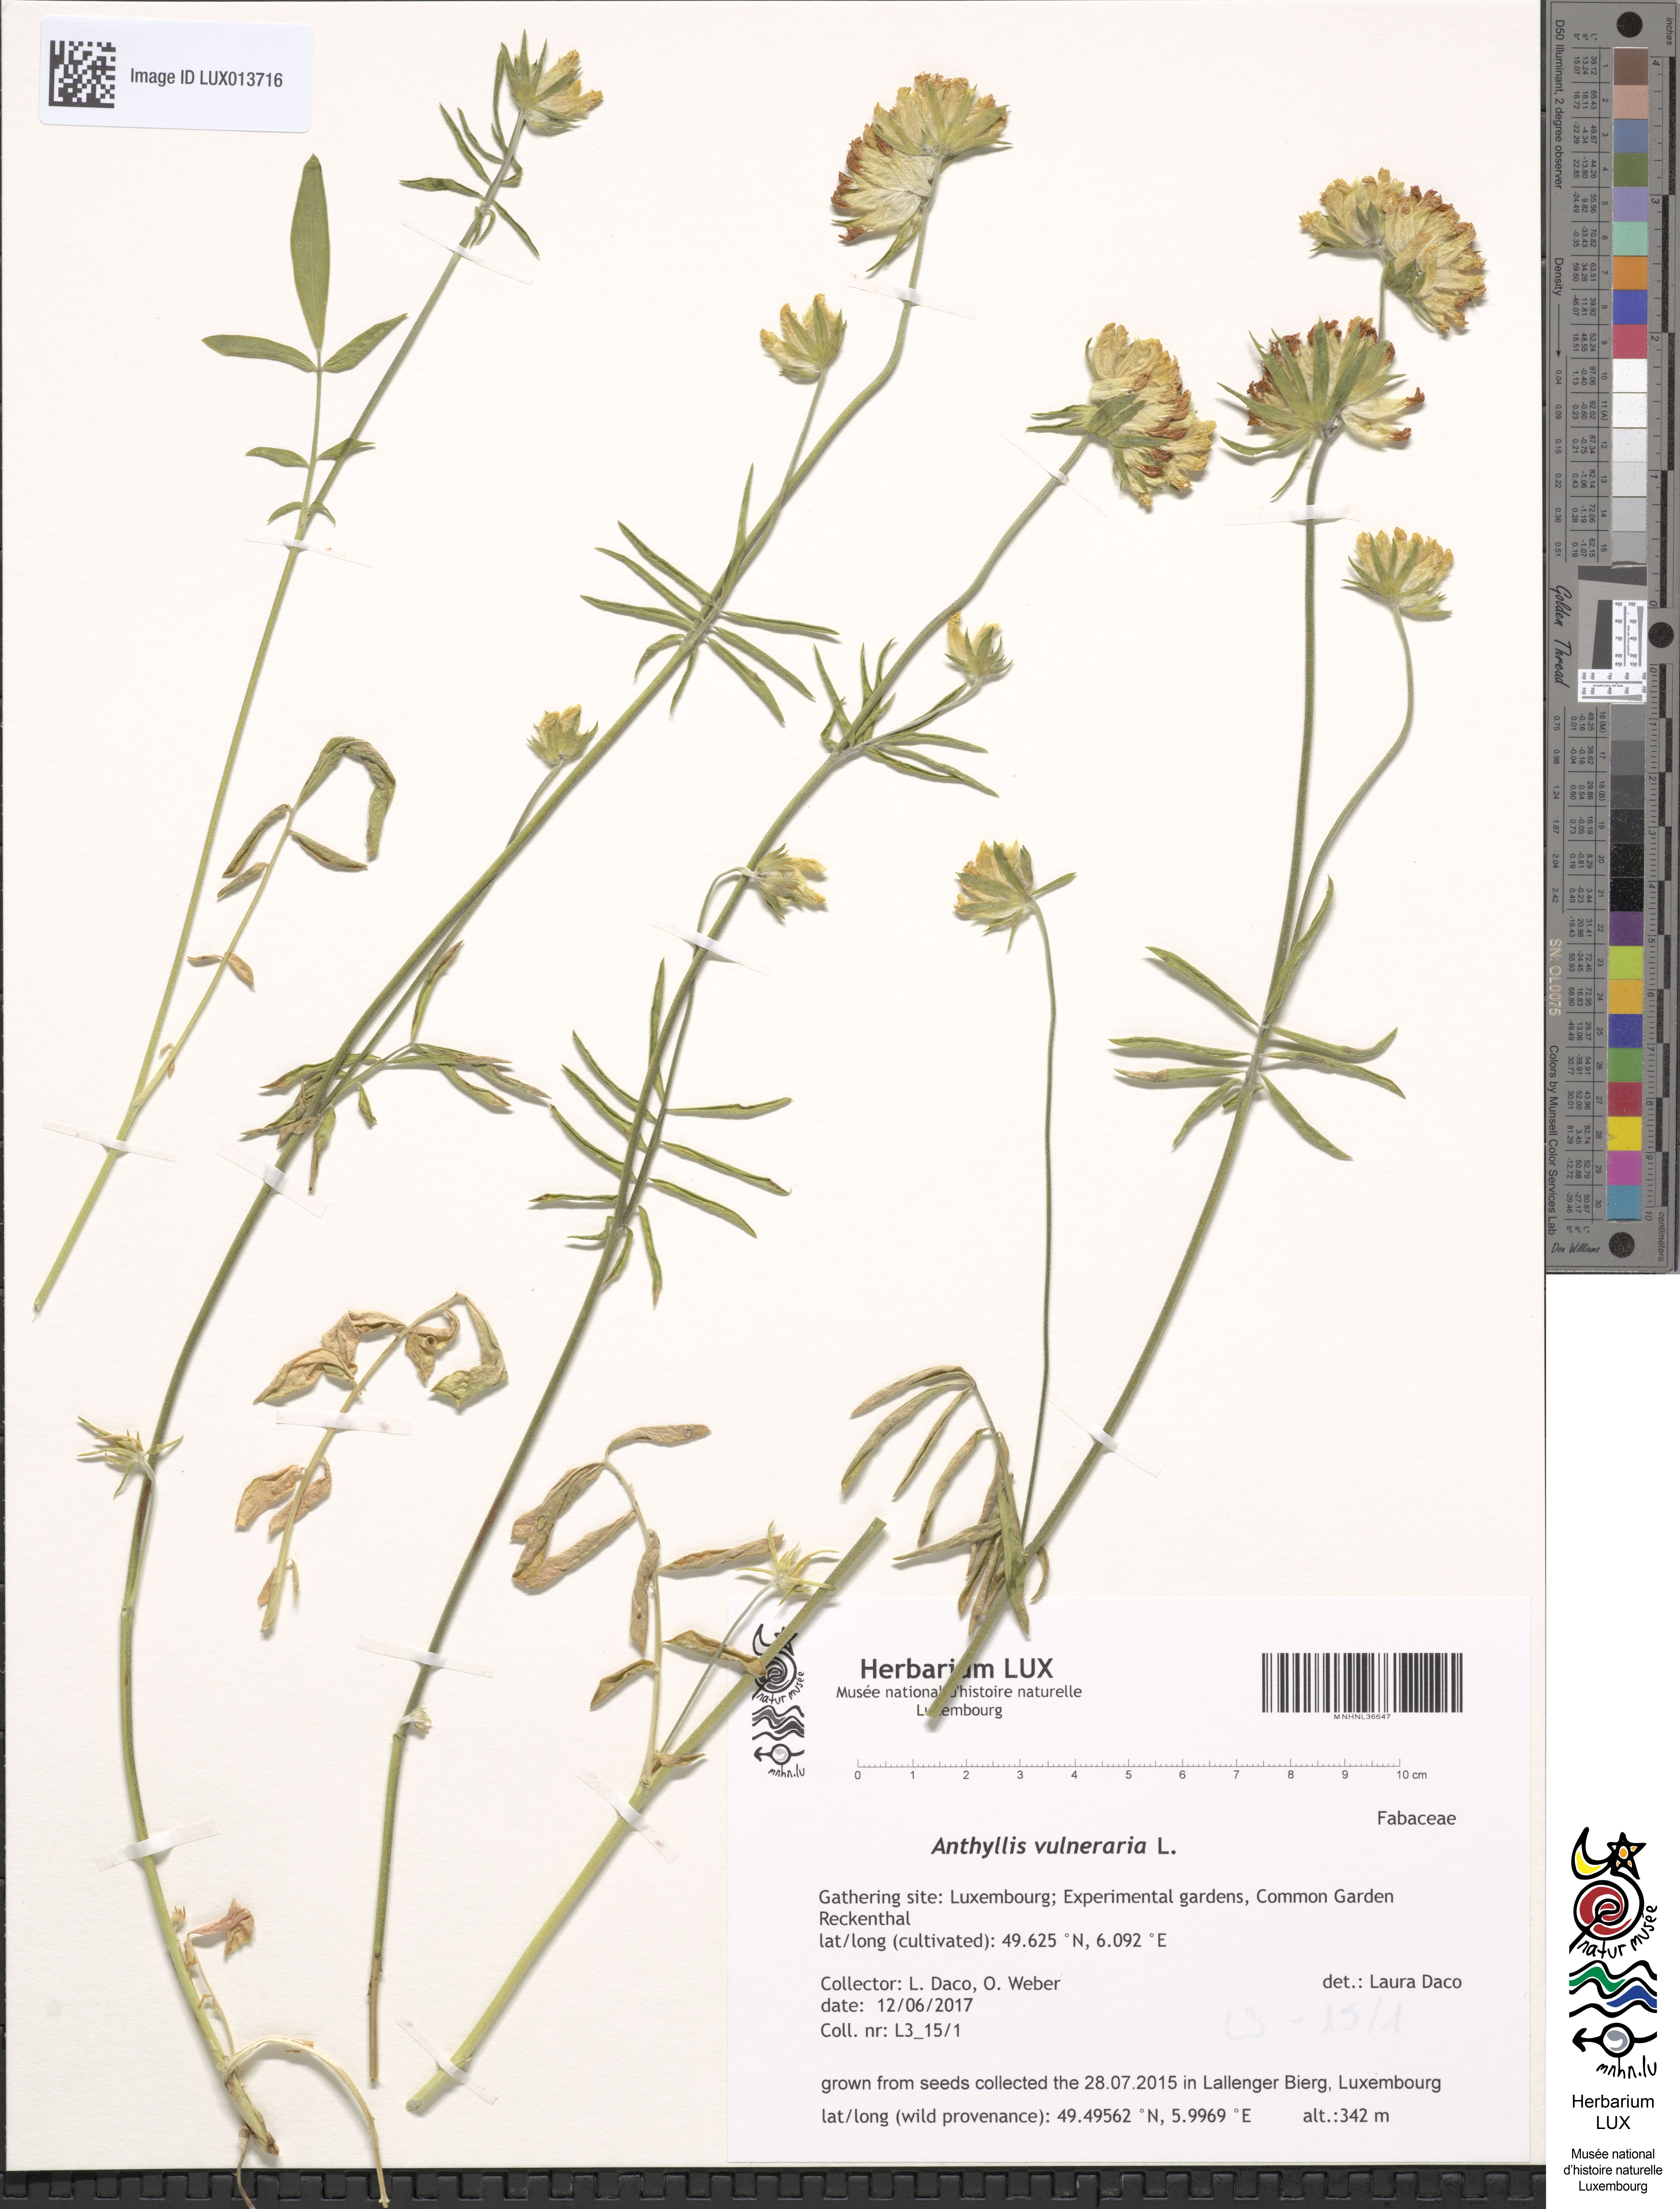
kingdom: Plantae
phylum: Tracheophyta
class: Magnoliopsida
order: Fabales
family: Fabaceae
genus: Anthyllis
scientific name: Anthyllis vulneraria
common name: Kidney vetch
